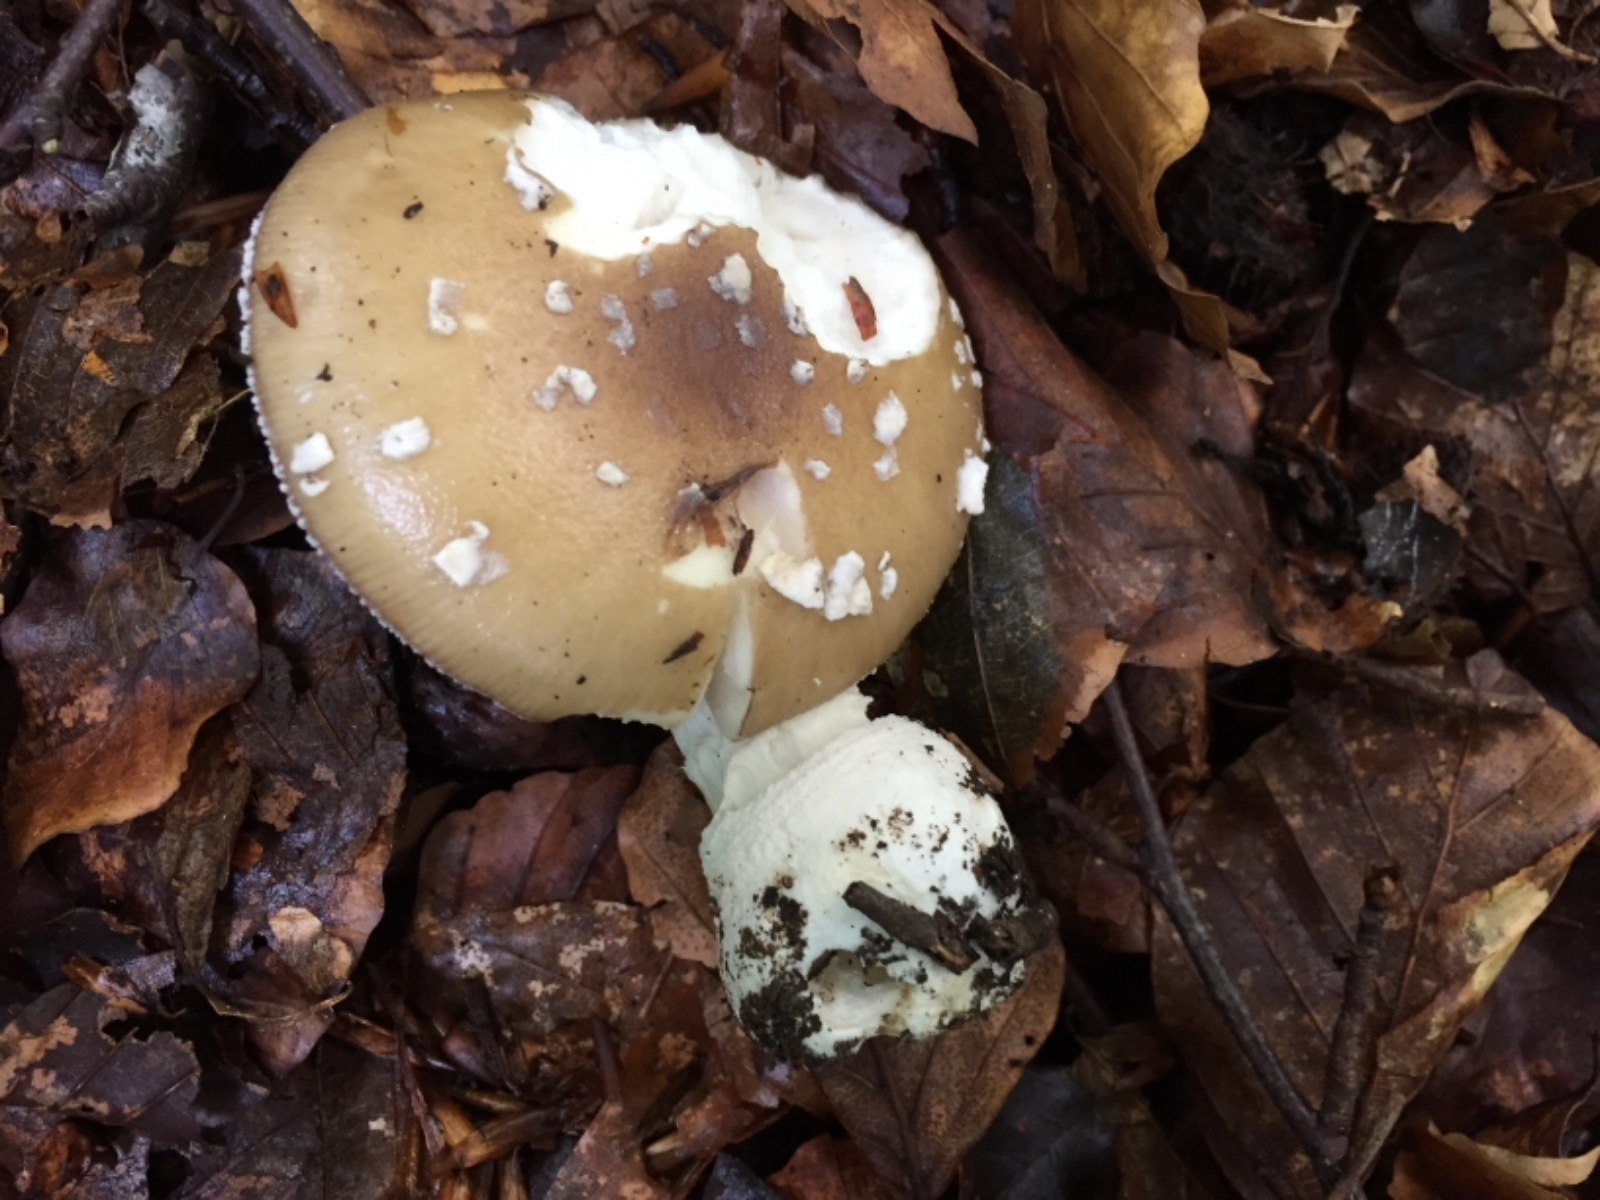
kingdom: Fungi
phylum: Basidiomycota
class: Agaricomycetes
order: Agaricales
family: Amanitaceae
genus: Amanita
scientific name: Amanita pantherina
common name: panter-fluesvamp
